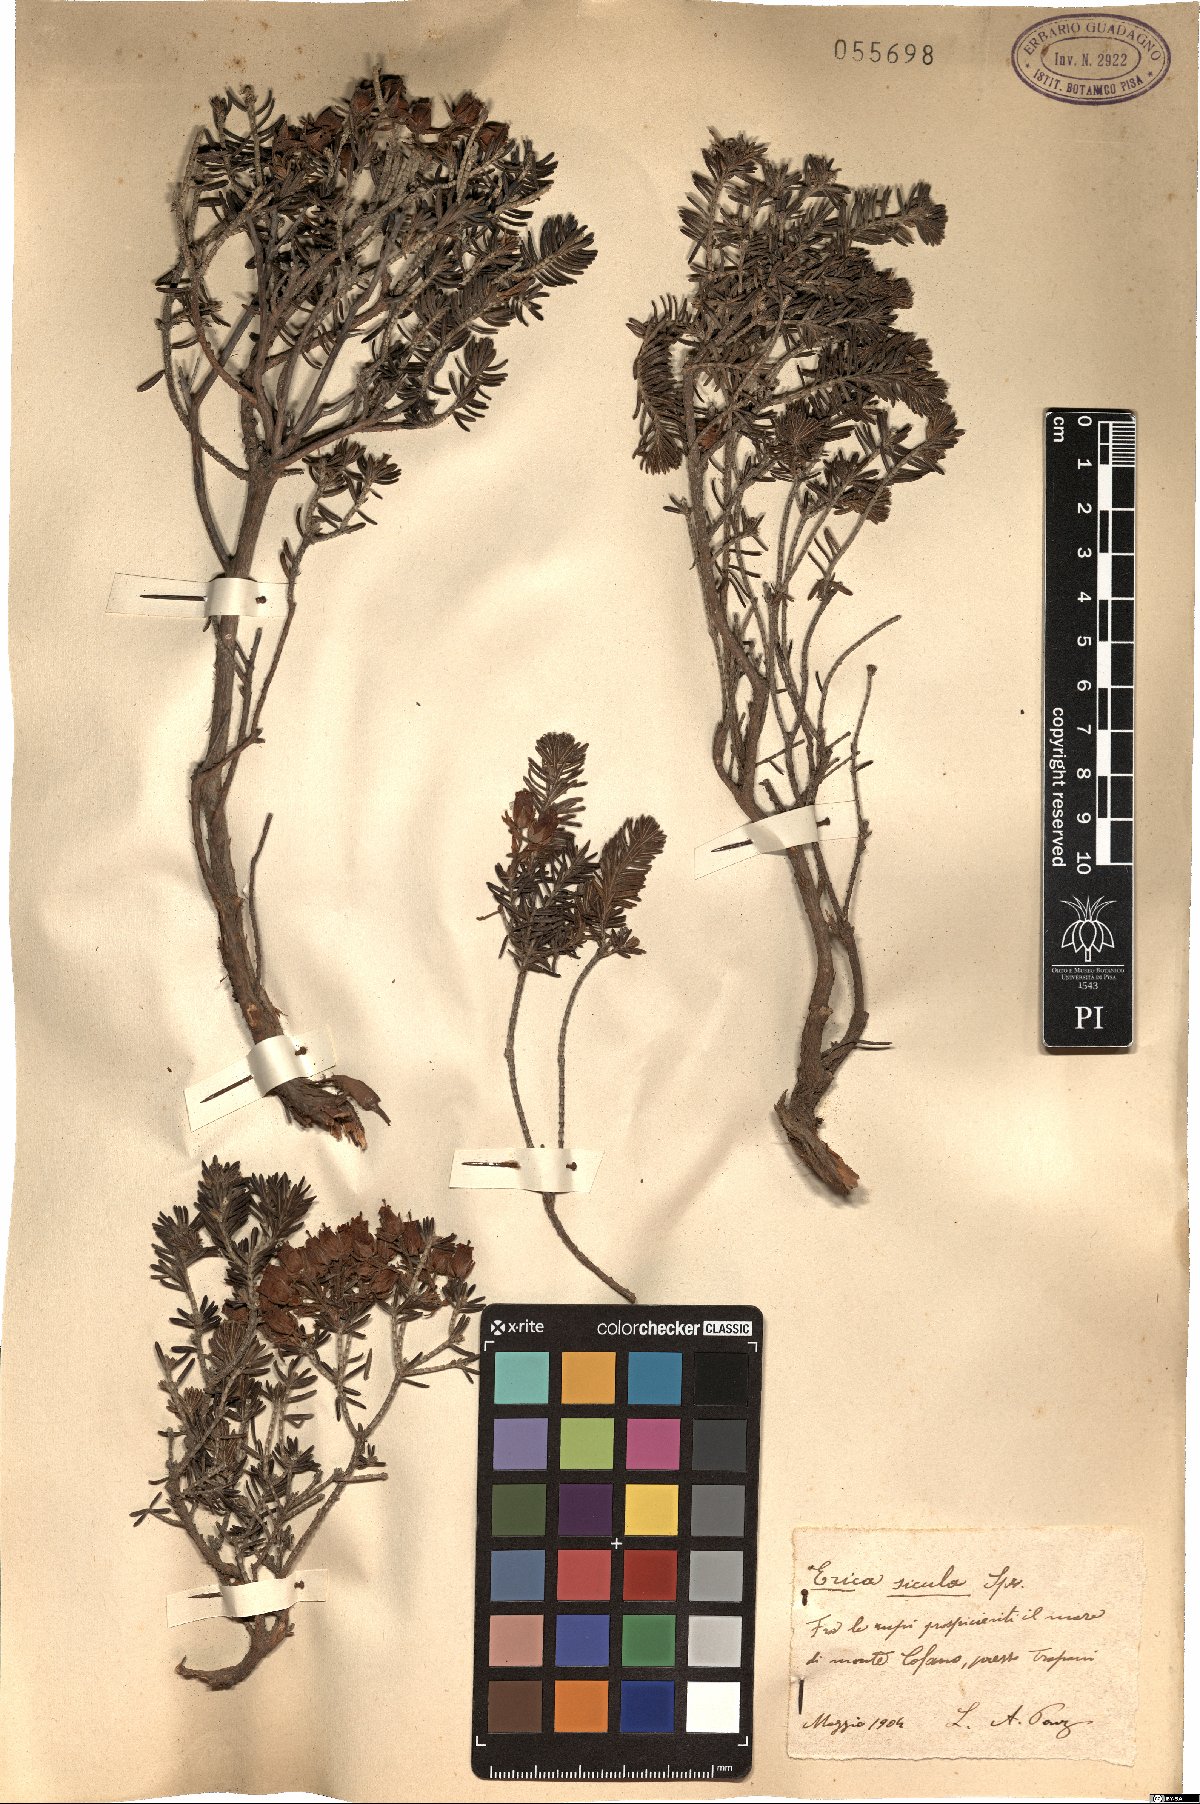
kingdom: Plantae
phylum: Tracheophyta
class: Magnoliopsida
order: Ericales
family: Ericaceae
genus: Erica
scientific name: Erica sicula
